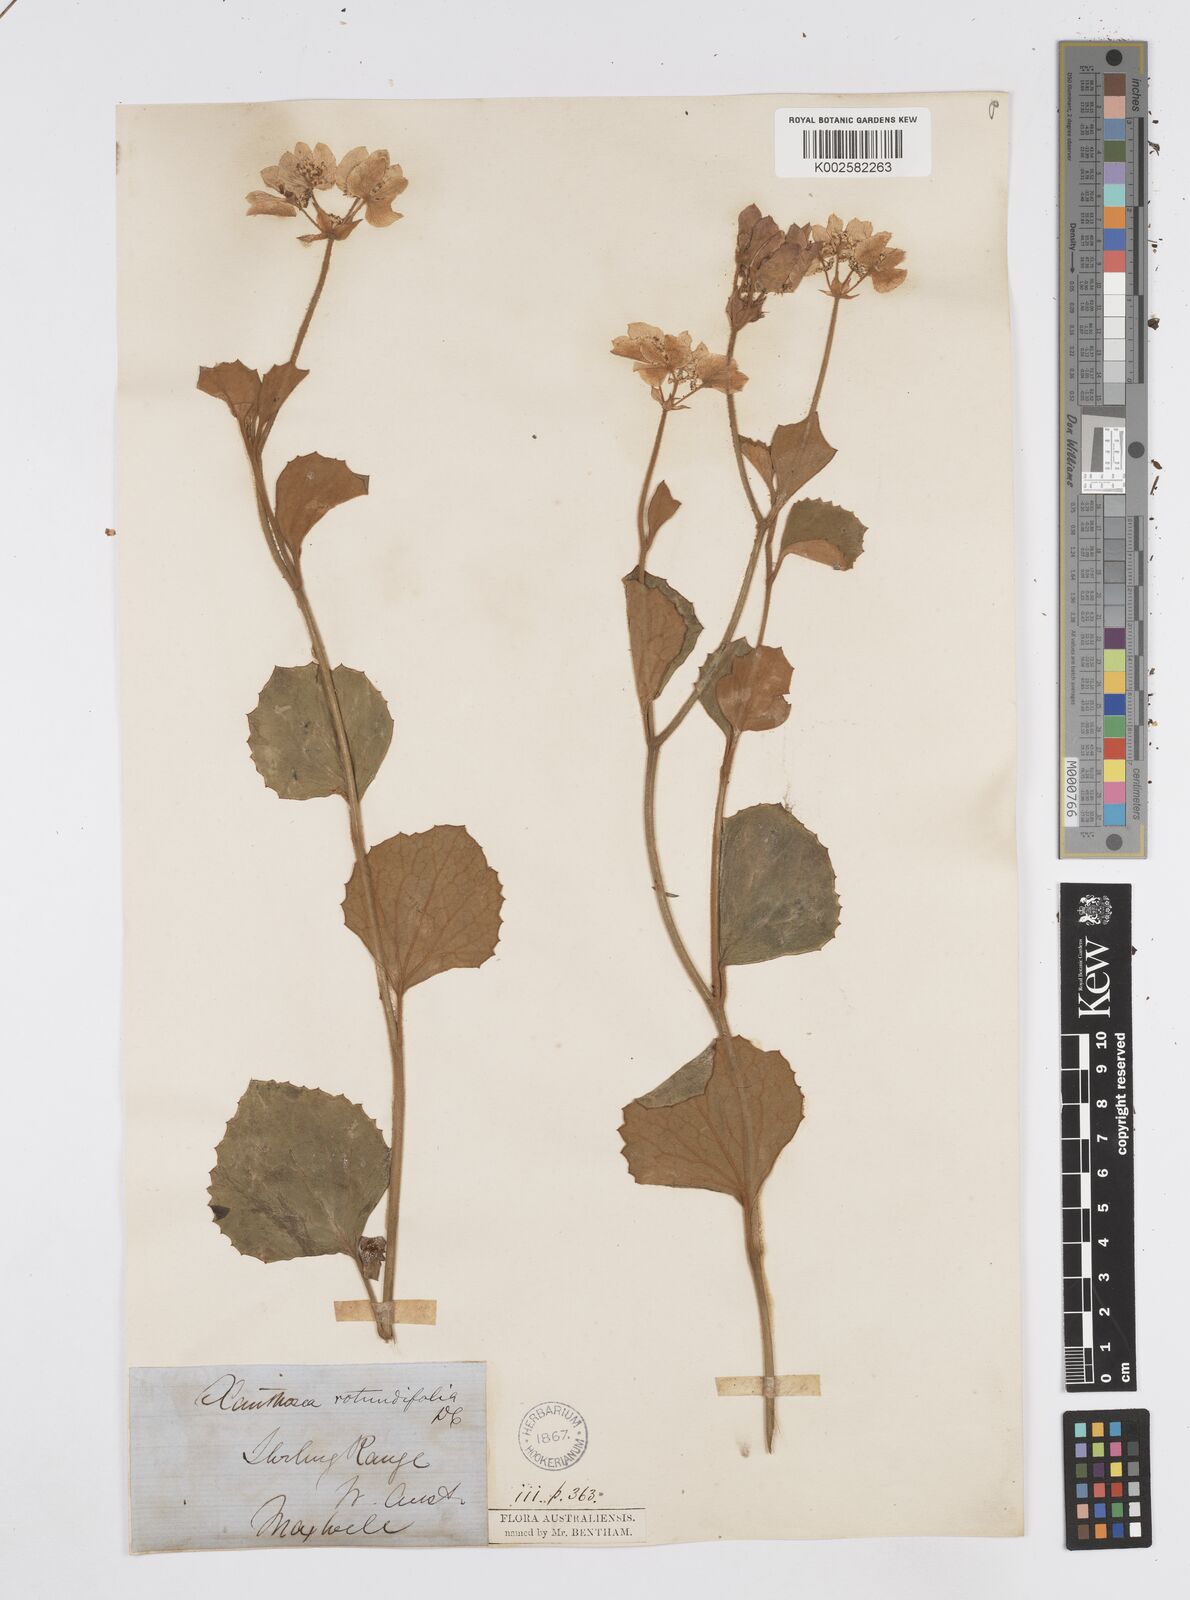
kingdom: Plantae
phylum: Tracheophyta
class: Magnoliopsida
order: Apiales
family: Apiaceae
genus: Xanthosia
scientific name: Xanthosia rotundifolia
